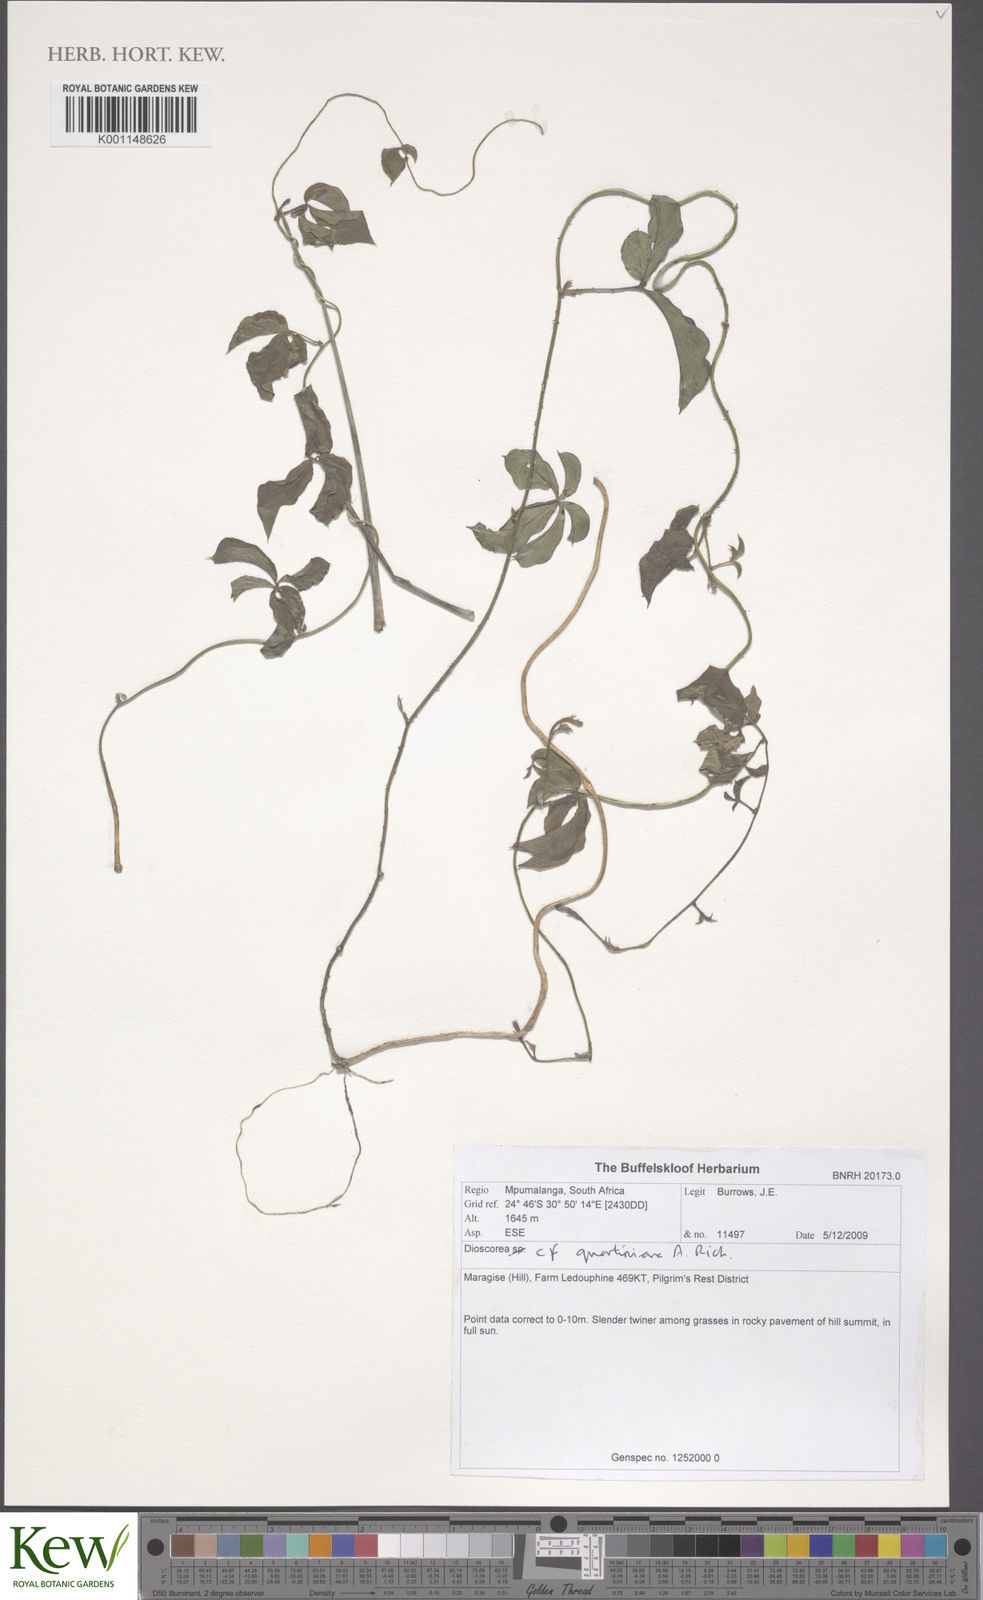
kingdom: Plantae
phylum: Tracheophyta
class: Liliopsida
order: Dioscoreales
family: Dioscoreaceae
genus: Dioscorea
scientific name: Dioscorea quartiniana
